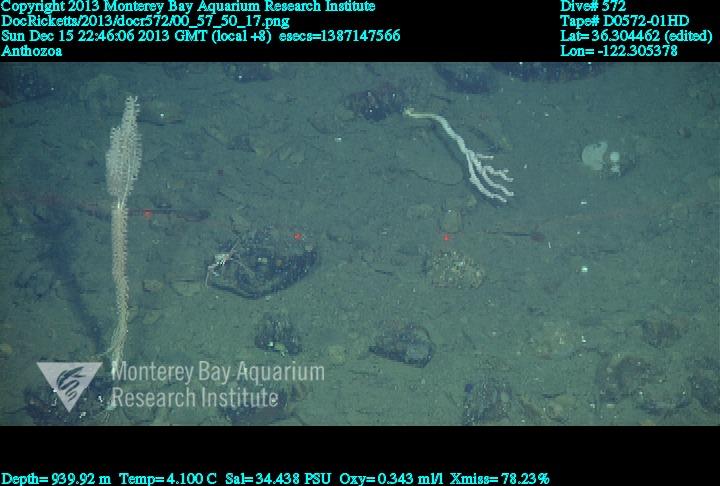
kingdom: Animalia
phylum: Cnidaria
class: Anthozoa
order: Scleralcyonacea
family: Keratoisididae
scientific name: Keratoisididae
